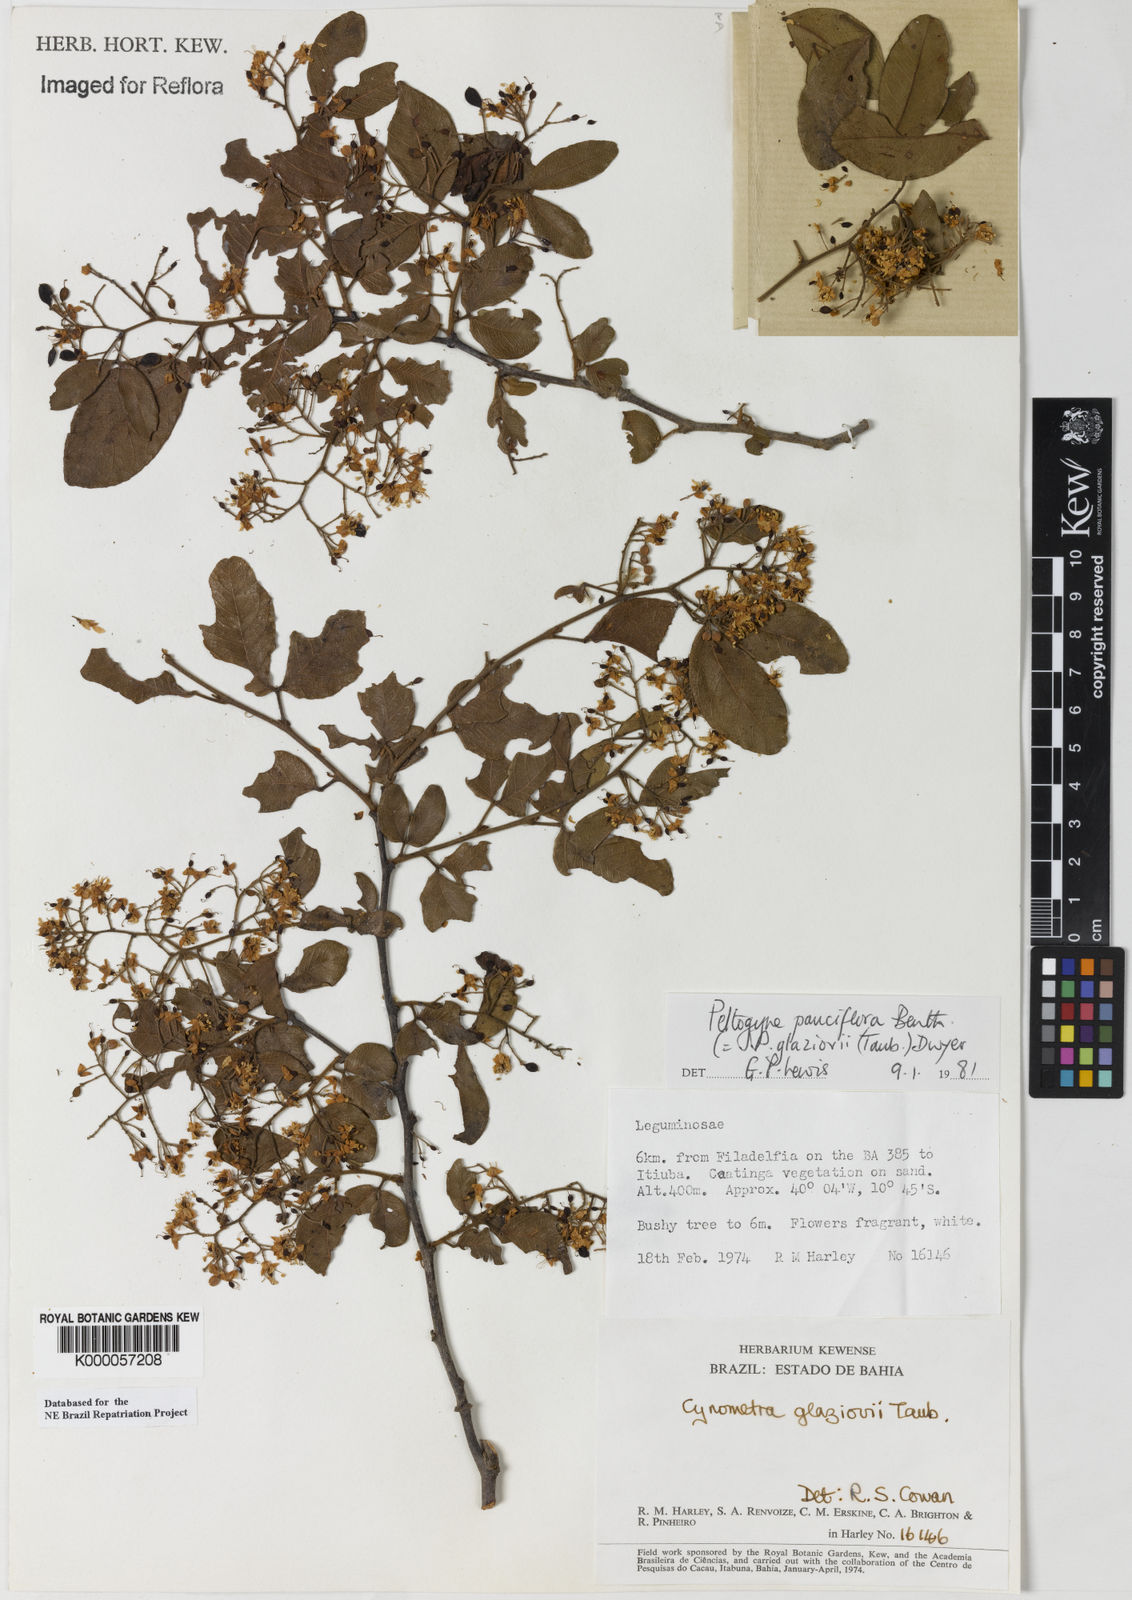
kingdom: Plantae
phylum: Tracheophyta
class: Magnoliopsida
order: Fabales
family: Fabaceae
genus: Peltogyne
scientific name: Peltogyne pauciflora
